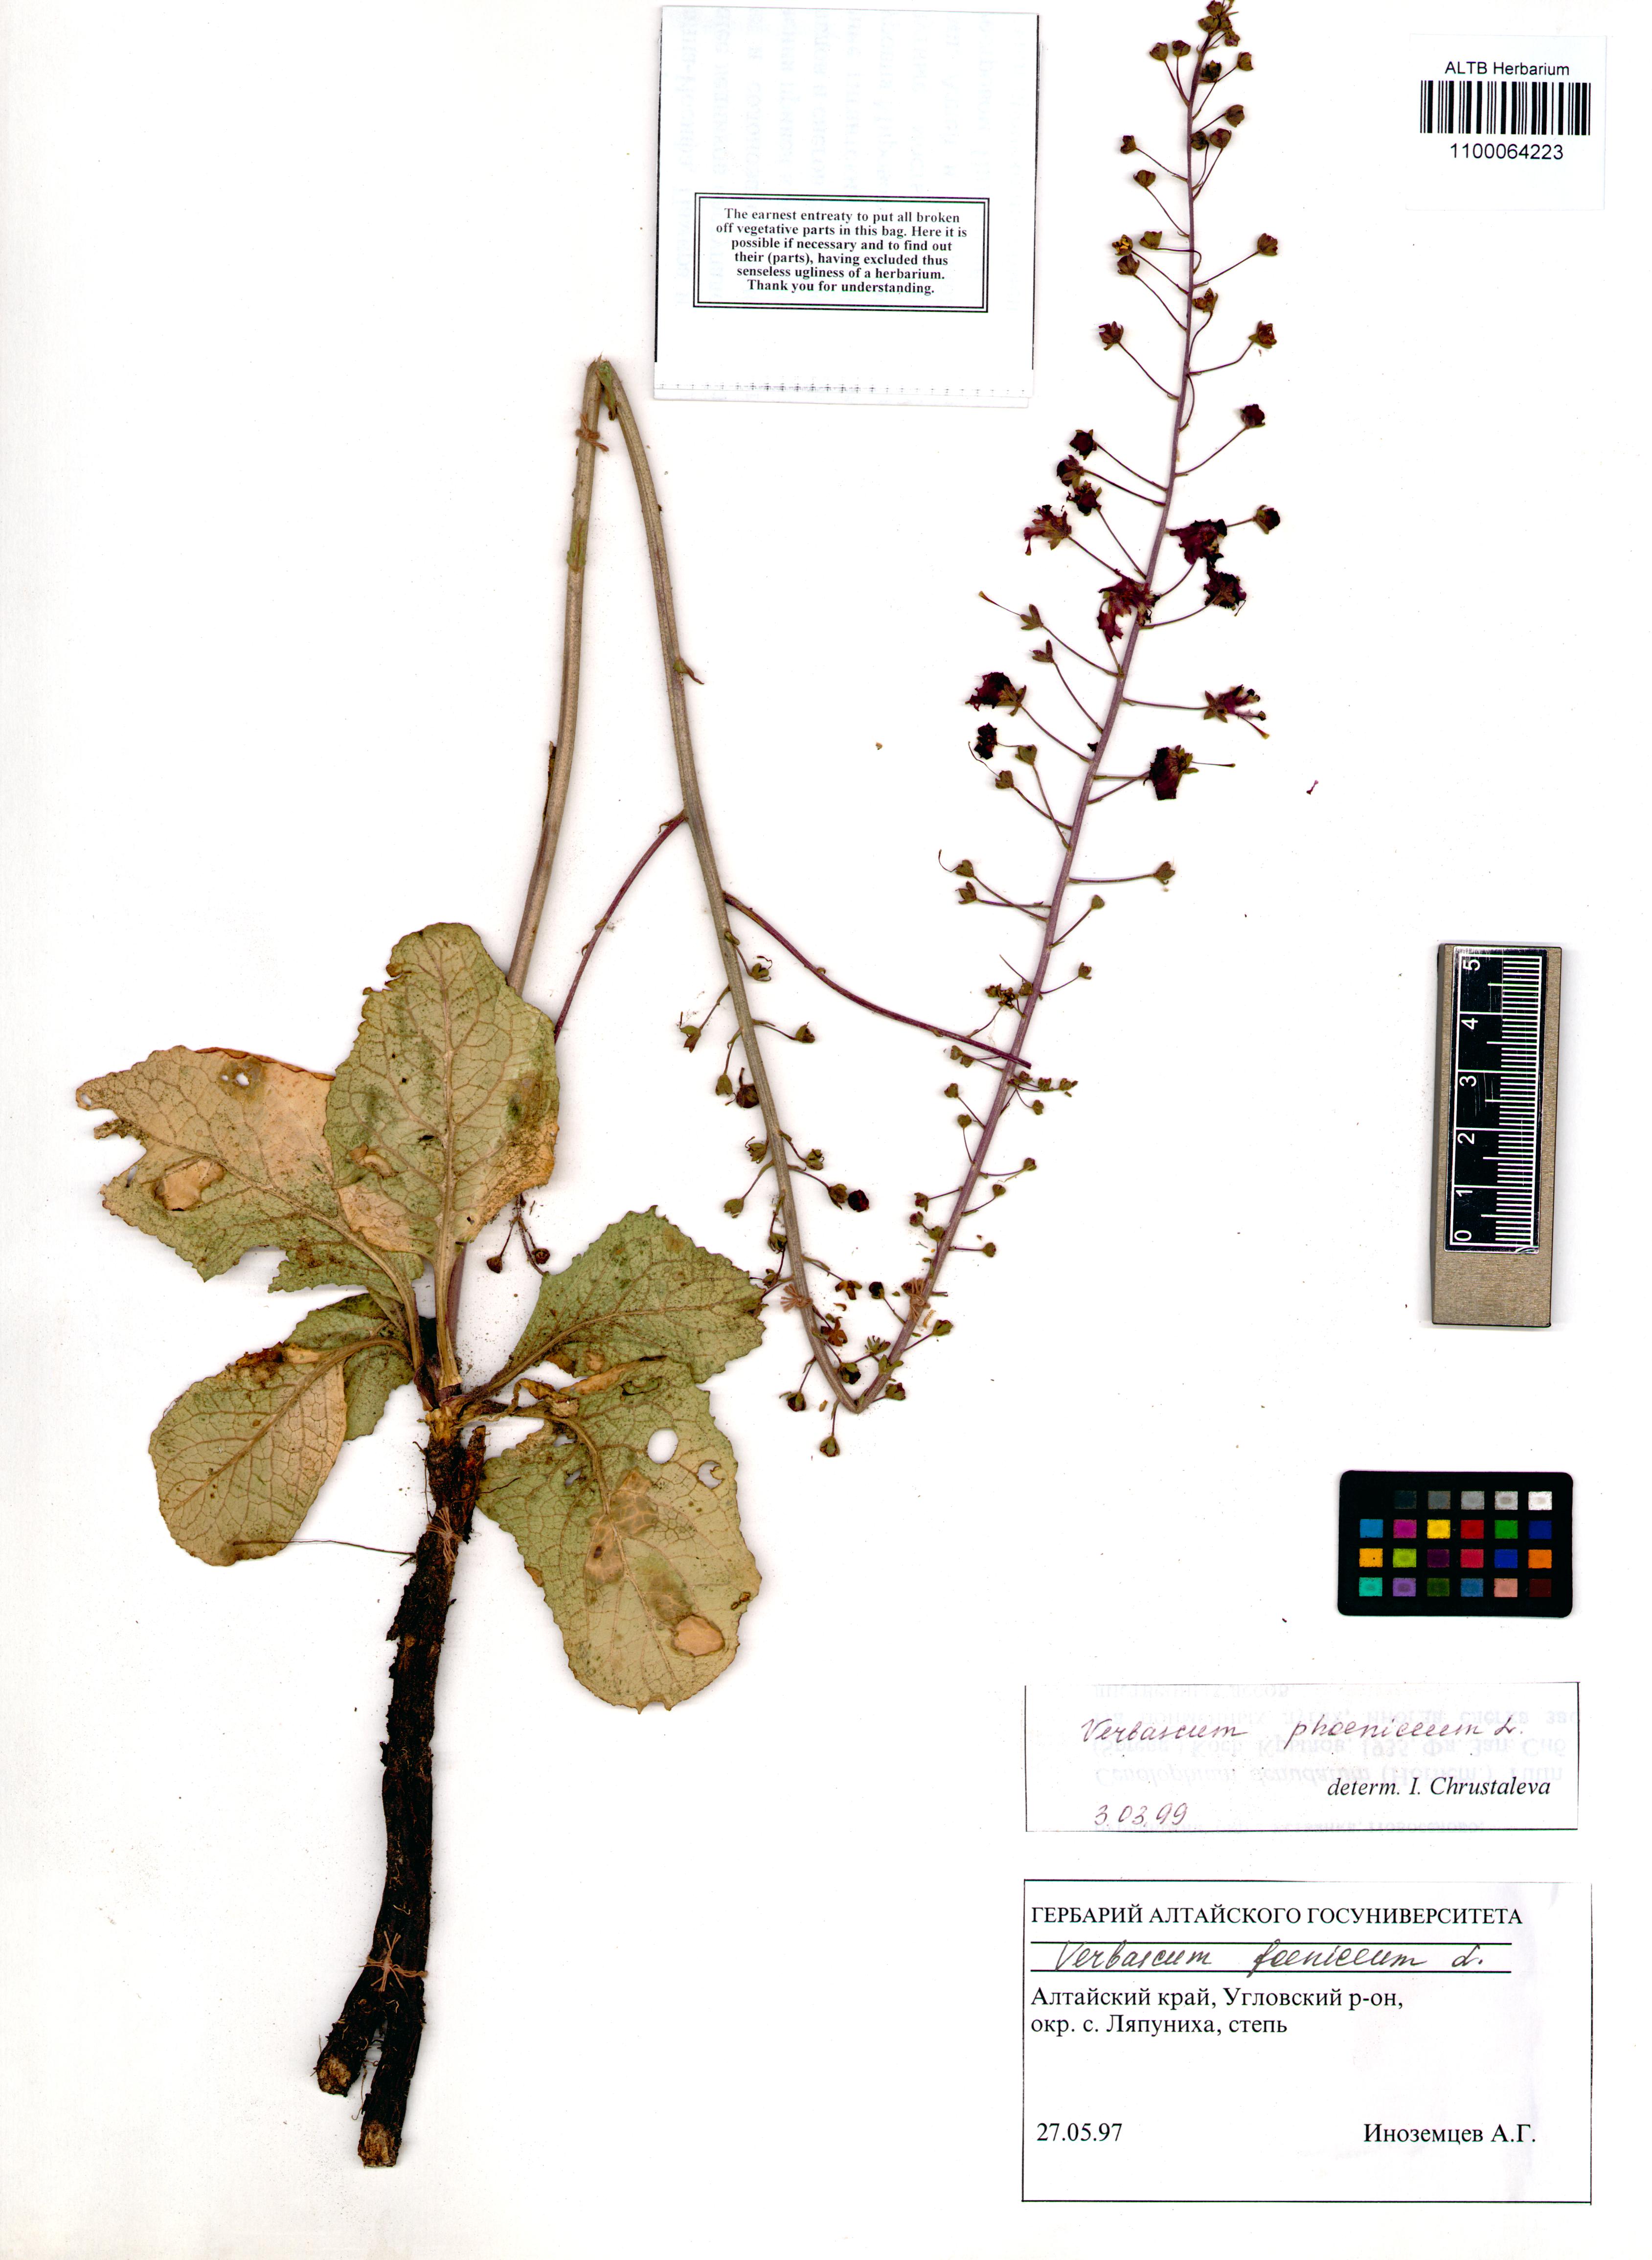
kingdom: Plantae
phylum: Tracheophyta
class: Magnoliopsida
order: Lamiales
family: Scrophulariaceae
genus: Verbascum
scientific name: Verbascum phoeniceum
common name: Purple mullein
